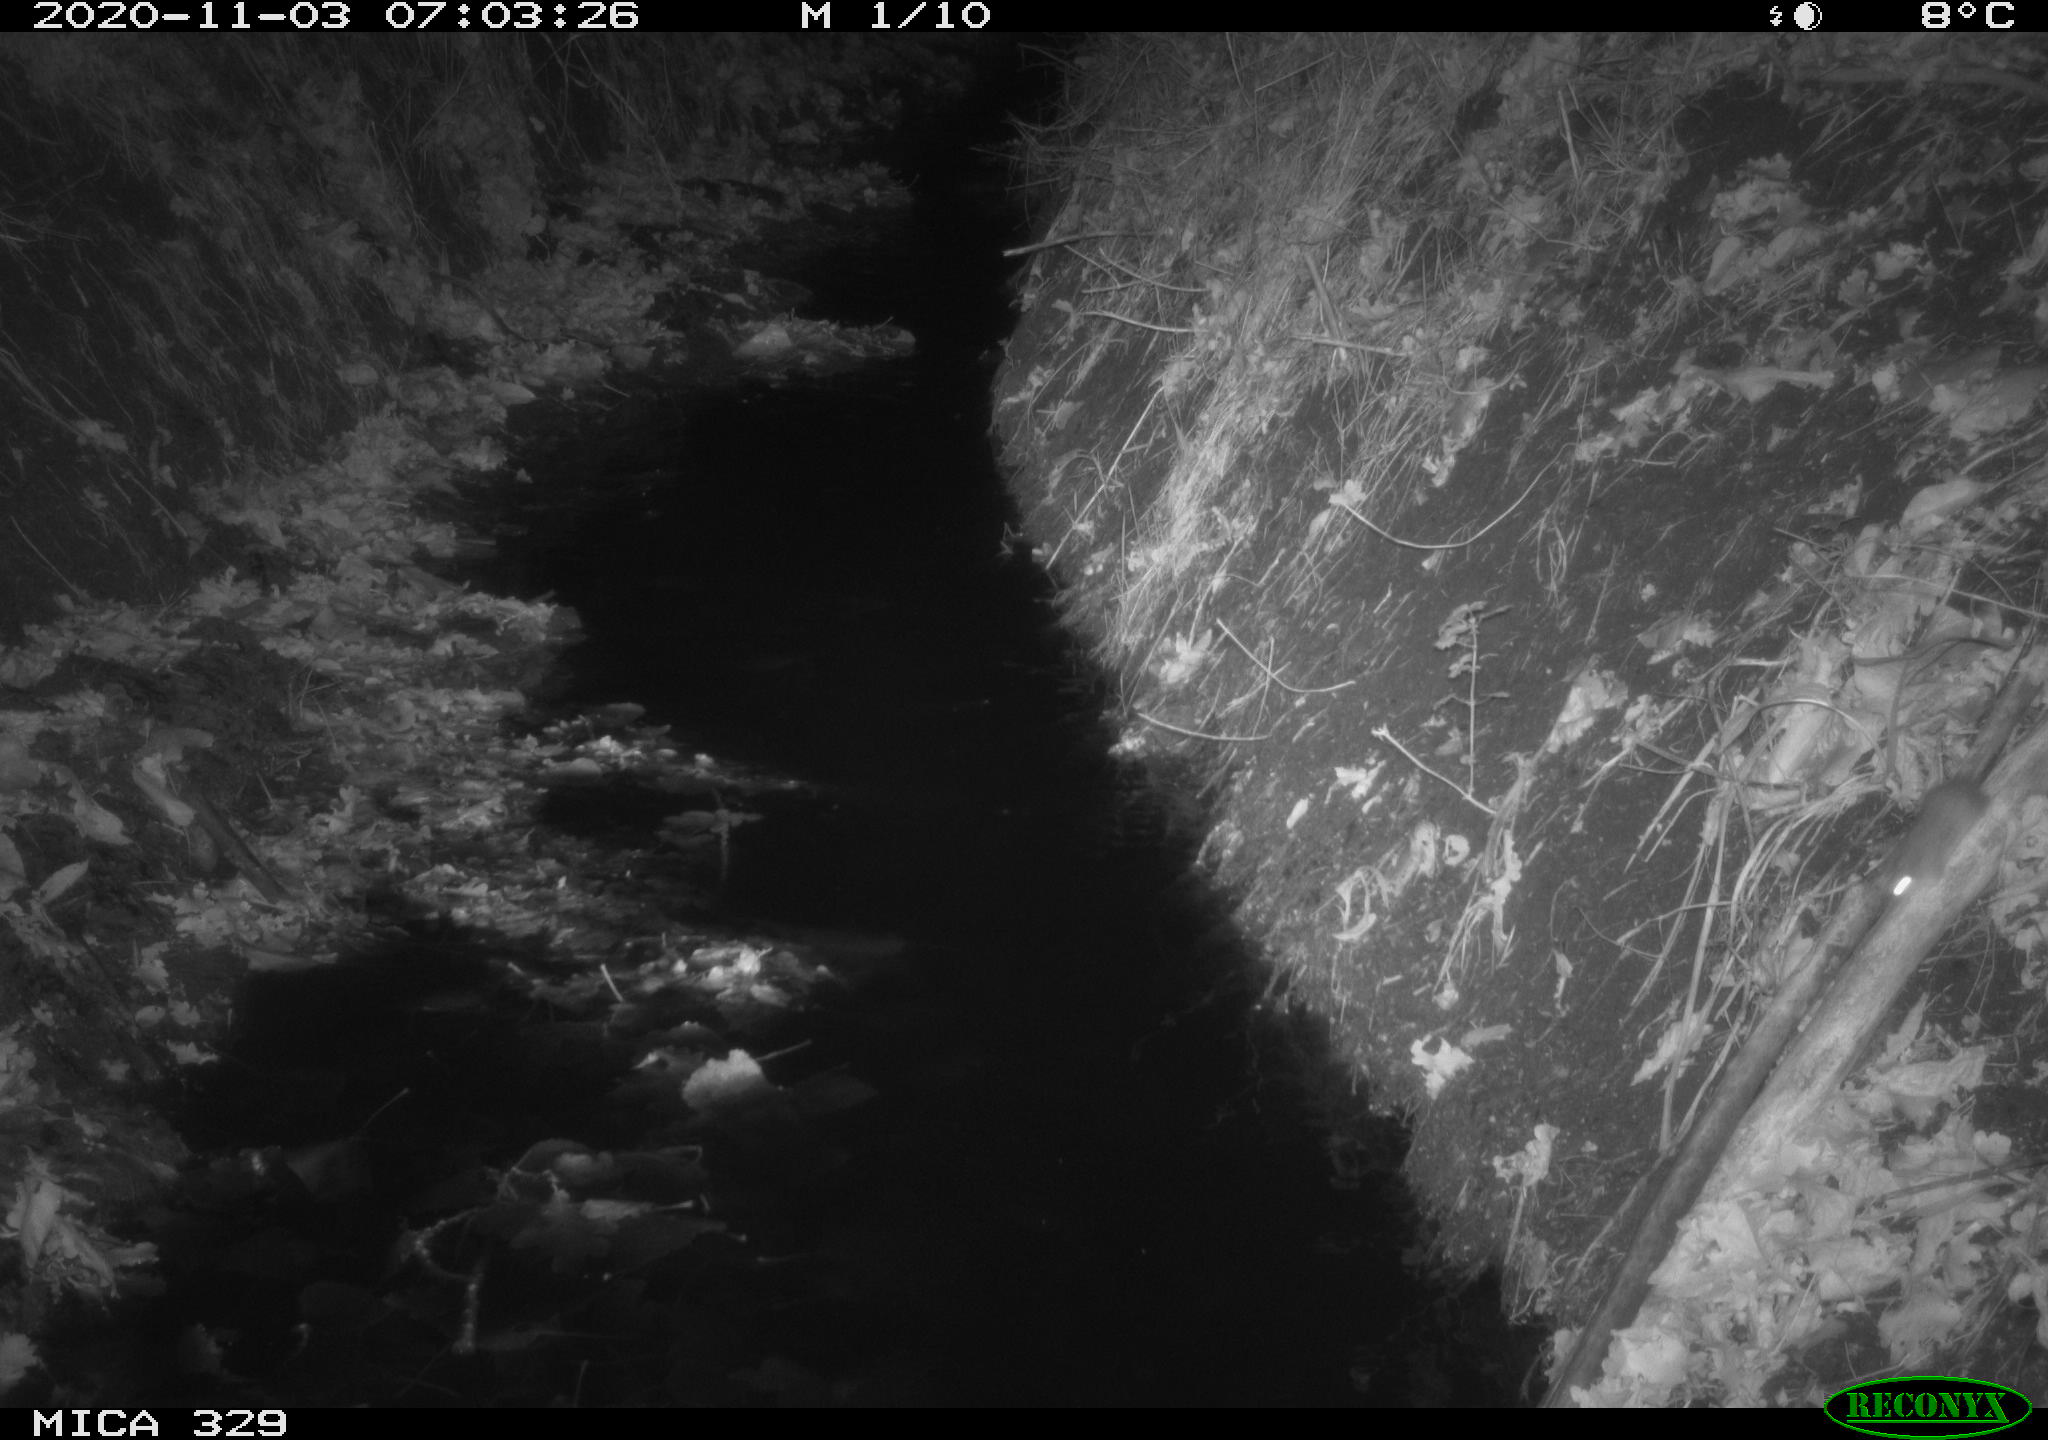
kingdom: Animalia
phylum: Chordata
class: Mammalia
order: Rodentia
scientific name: Rodentia
